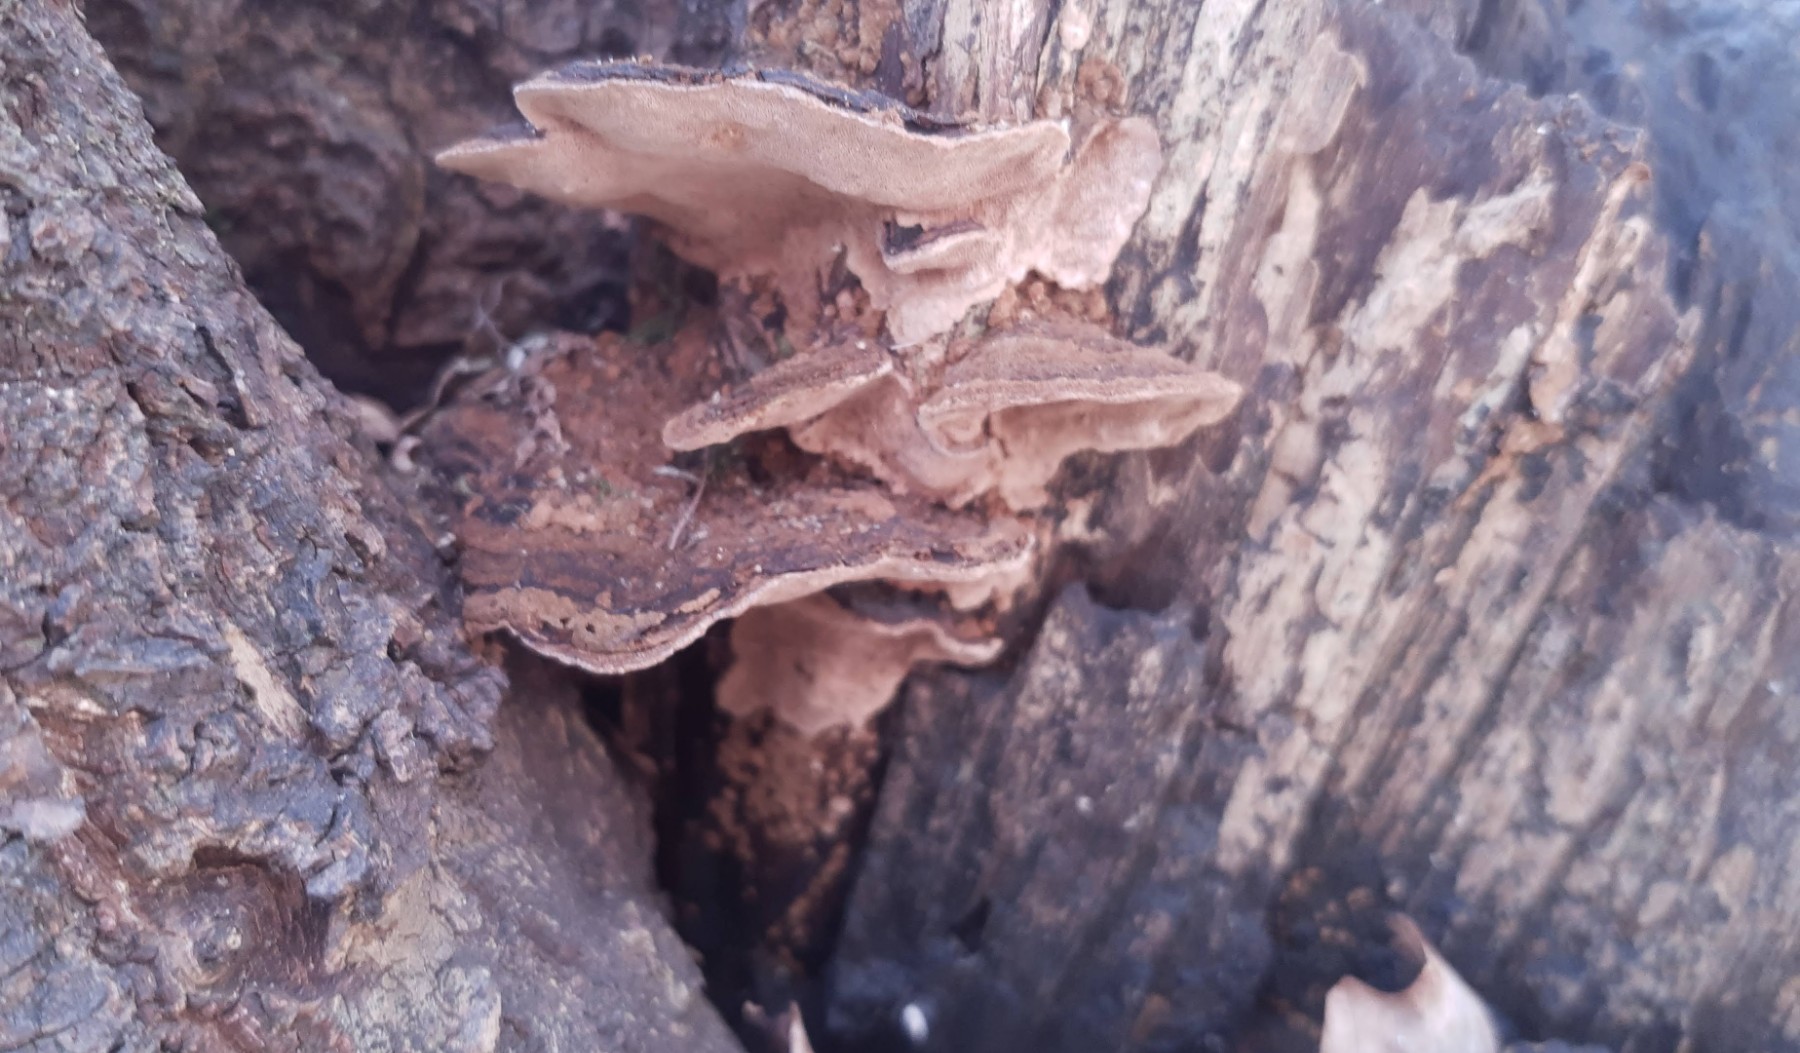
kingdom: Fungi
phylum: Basidiomycota
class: Agaricomycetes
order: Hymenochaetales
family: Hymenochaetaceae
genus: Phellinopsis
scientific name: Phellinopsis conchata
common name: pile-ildporesvamp
